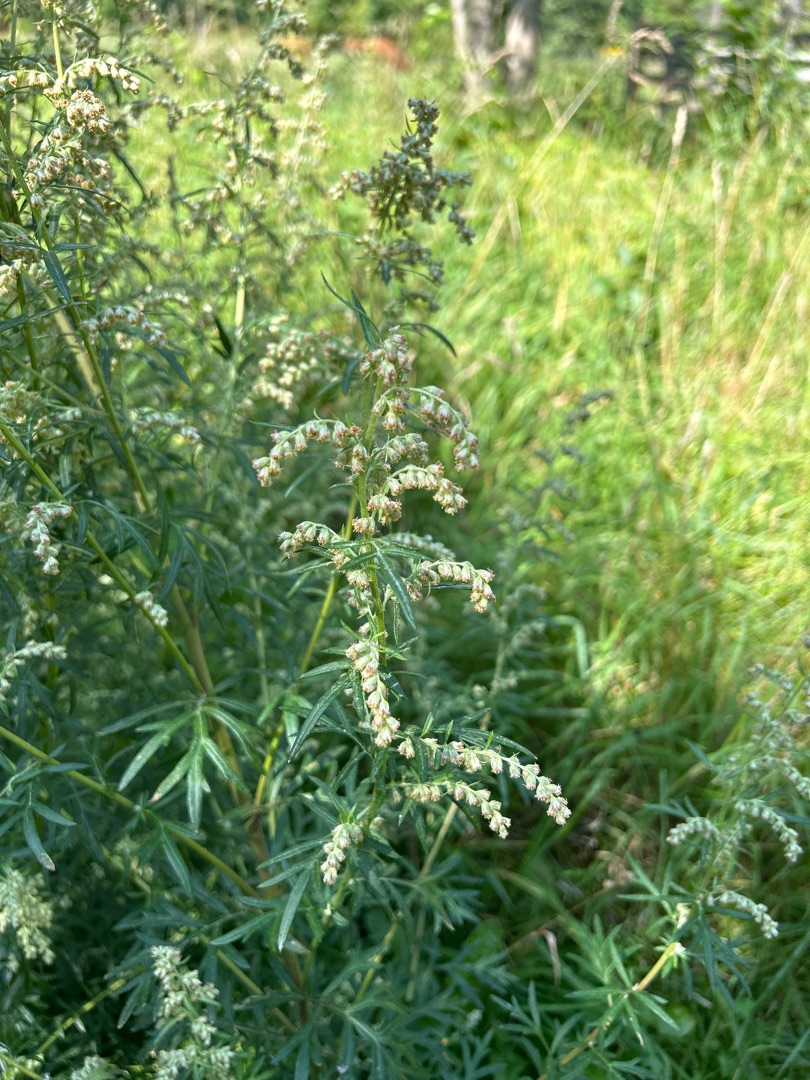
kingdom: Plantae
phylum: Tracheophyta
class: Magnoliopsida
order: Asterales
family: Asteraceae
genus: Artemisia
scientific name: Artemisia vulgaris
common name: Grå-bynke
